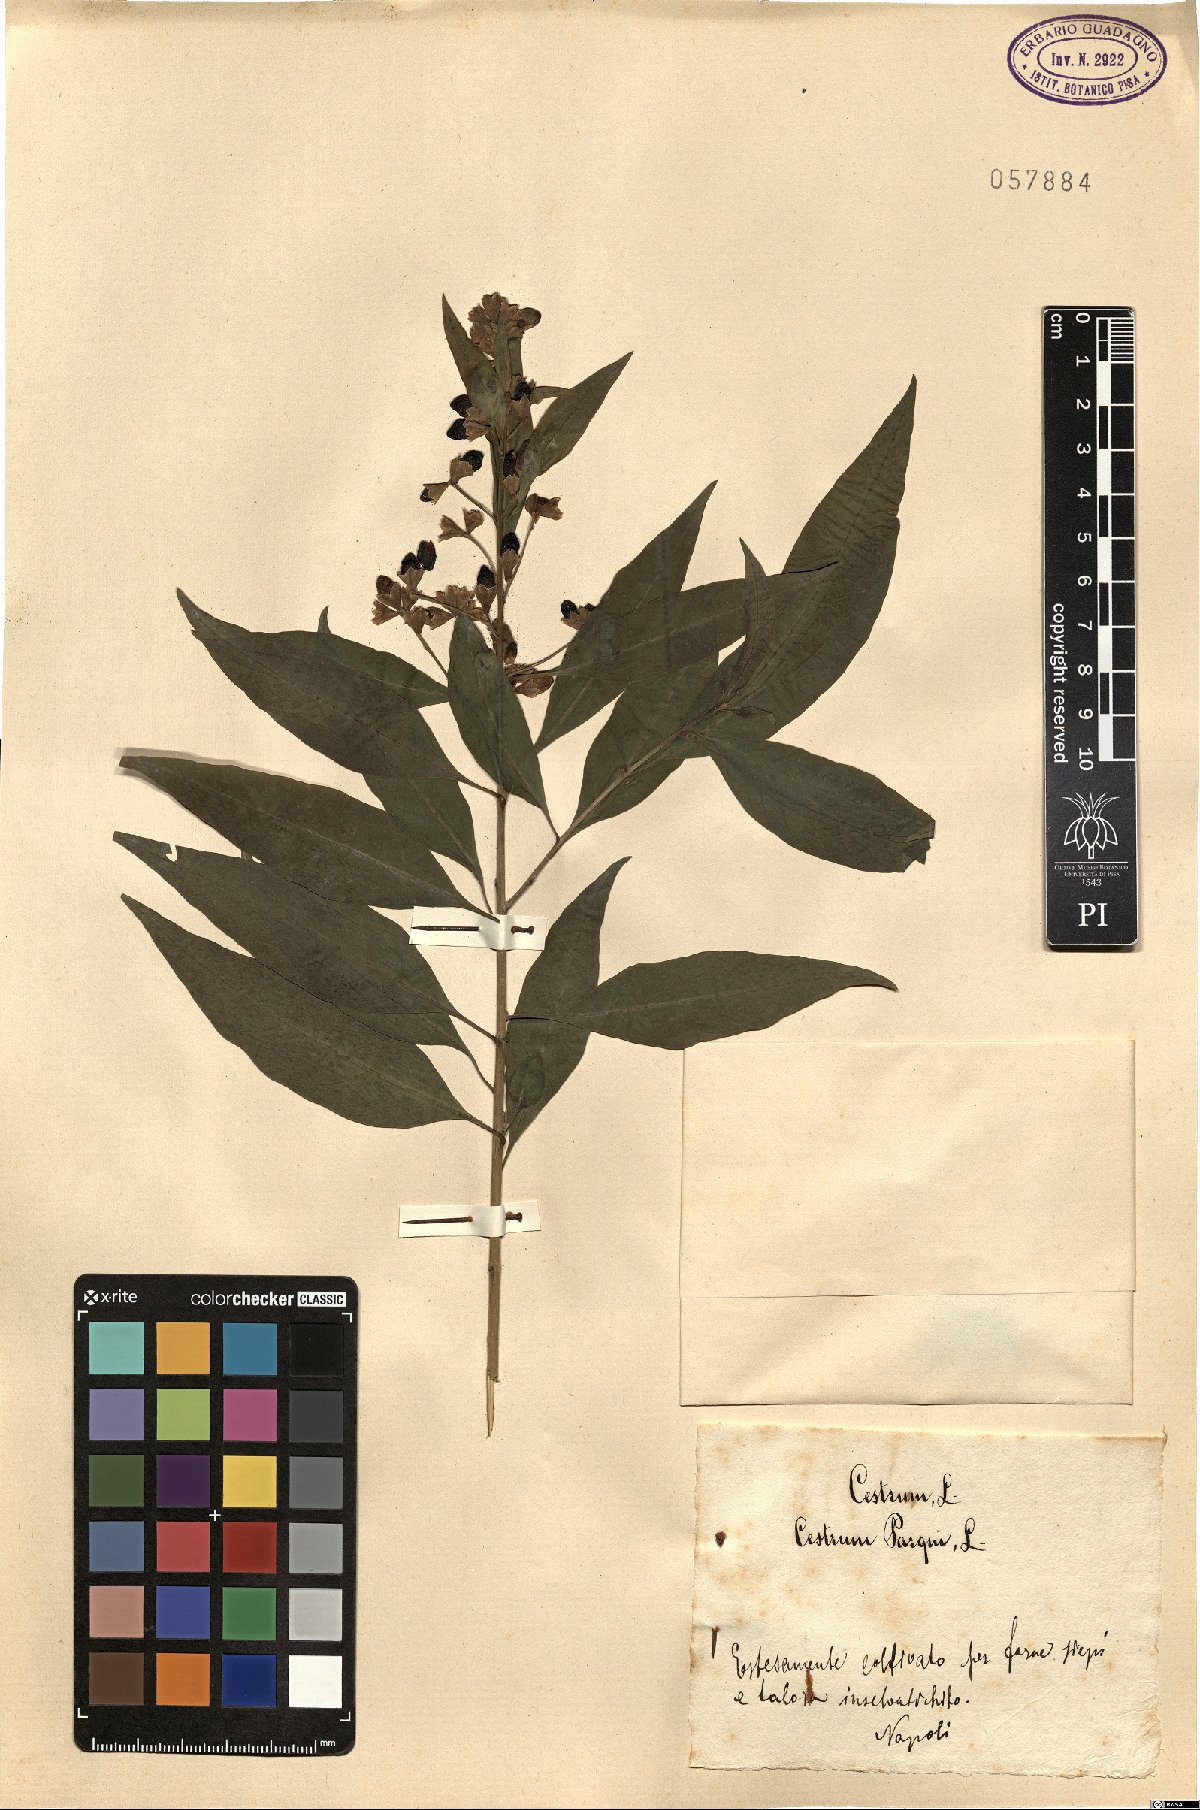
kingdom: Plantae
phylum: Tracheophyta
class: Magnoliopsida
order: Solanales
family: Solanaceae
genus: Cestrum
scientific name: Cestrum thyrsoideum
